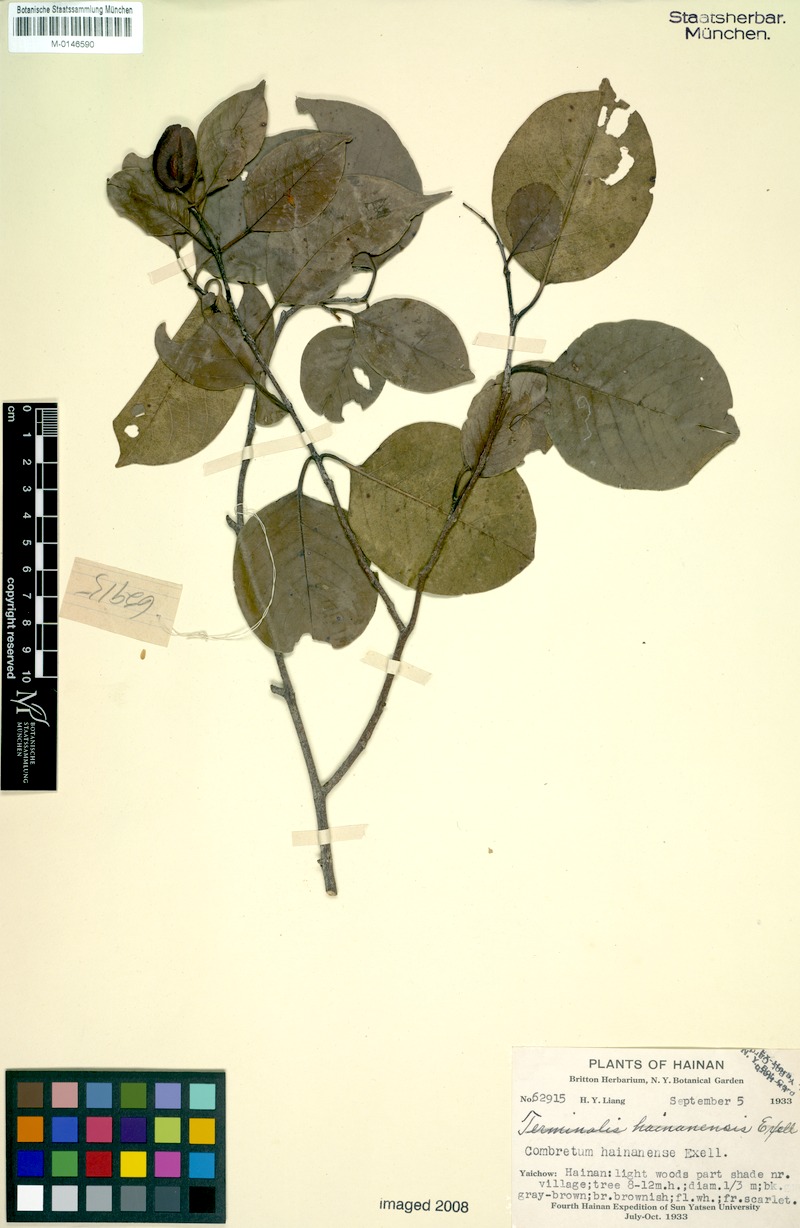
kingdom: Plantae
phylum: Tracheophyta
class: Magnoliopsida
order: Myrtales
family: Combretaceae
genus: Terminalia
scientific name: Terminalia triptera
